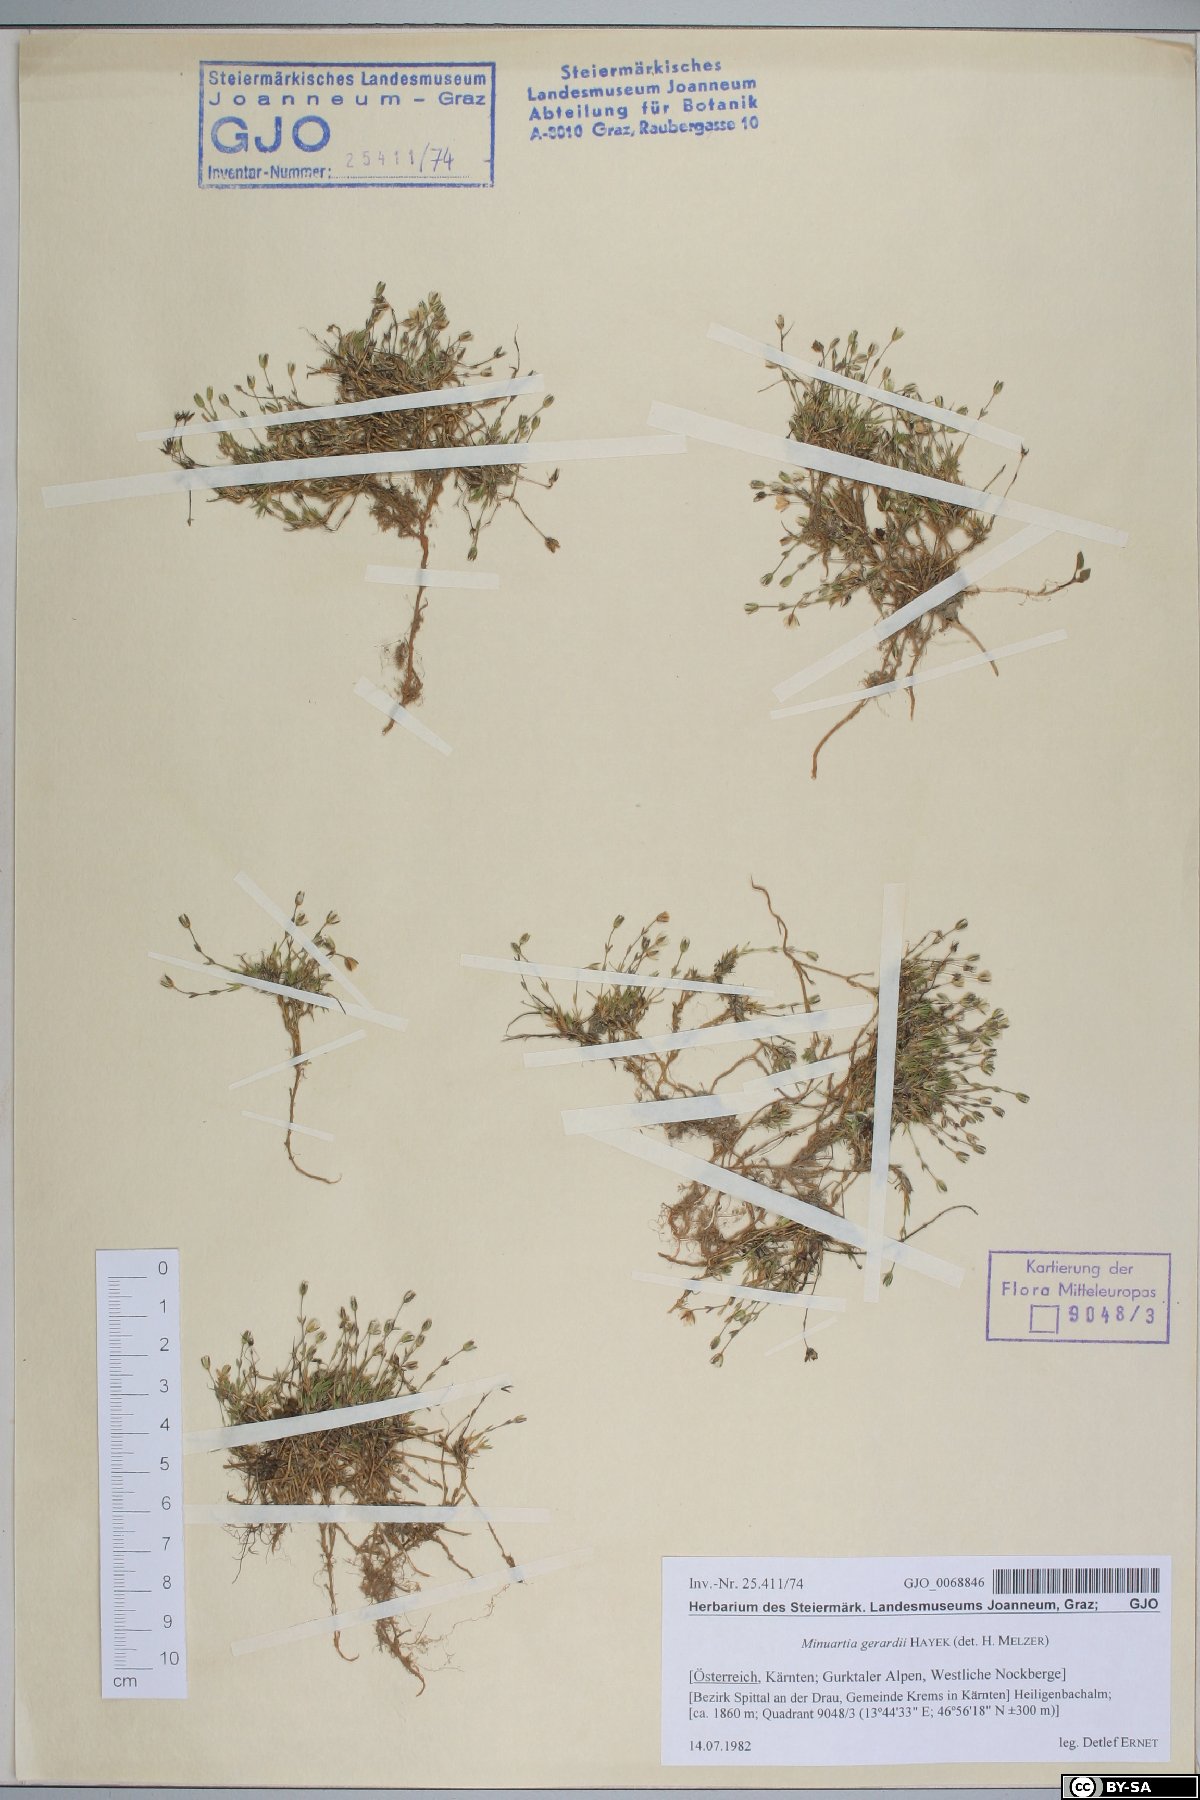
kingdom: Plantae
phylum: Tracheophyta
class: Magnoliopsida
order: Caryophyllales
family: Caryophyllaceae
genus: Sabulina
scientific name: Sabulina verna
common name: Spring sandwort
